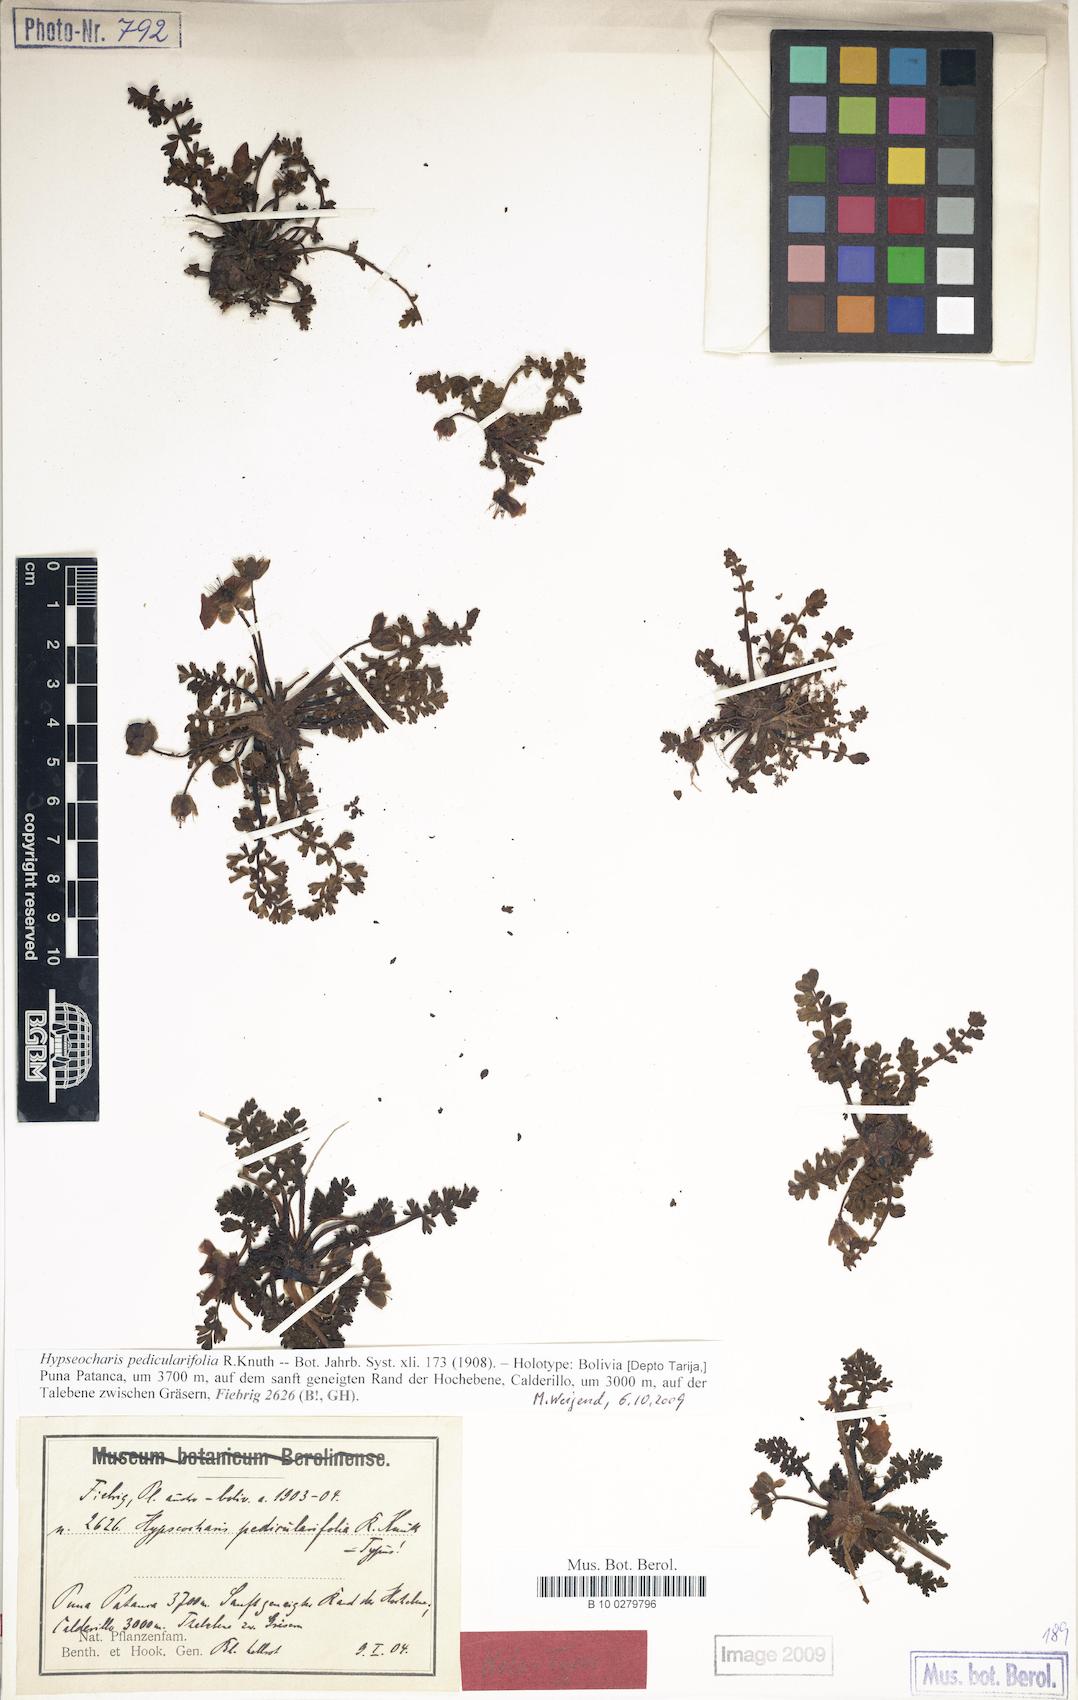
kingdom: Plantae
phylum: Tracheophyta
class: Magnoliopsida
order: Geraniales
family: Hypseocharitaceae
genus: Hypseocharis
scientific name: Hypseocharis pedicularifolia
